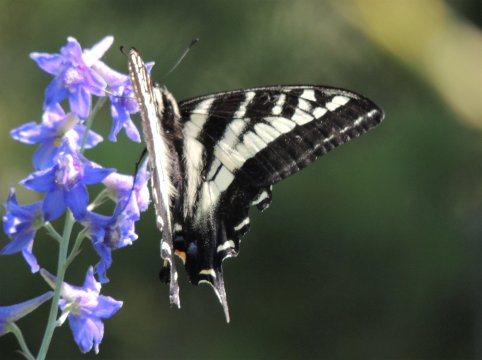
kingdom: Animalia
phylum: Arthropoda
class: Insecta
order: Lepidoptera
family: Papilionidae
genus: Pterourus
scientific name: Pterourus eurymedon
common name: Pale Swallowtail
